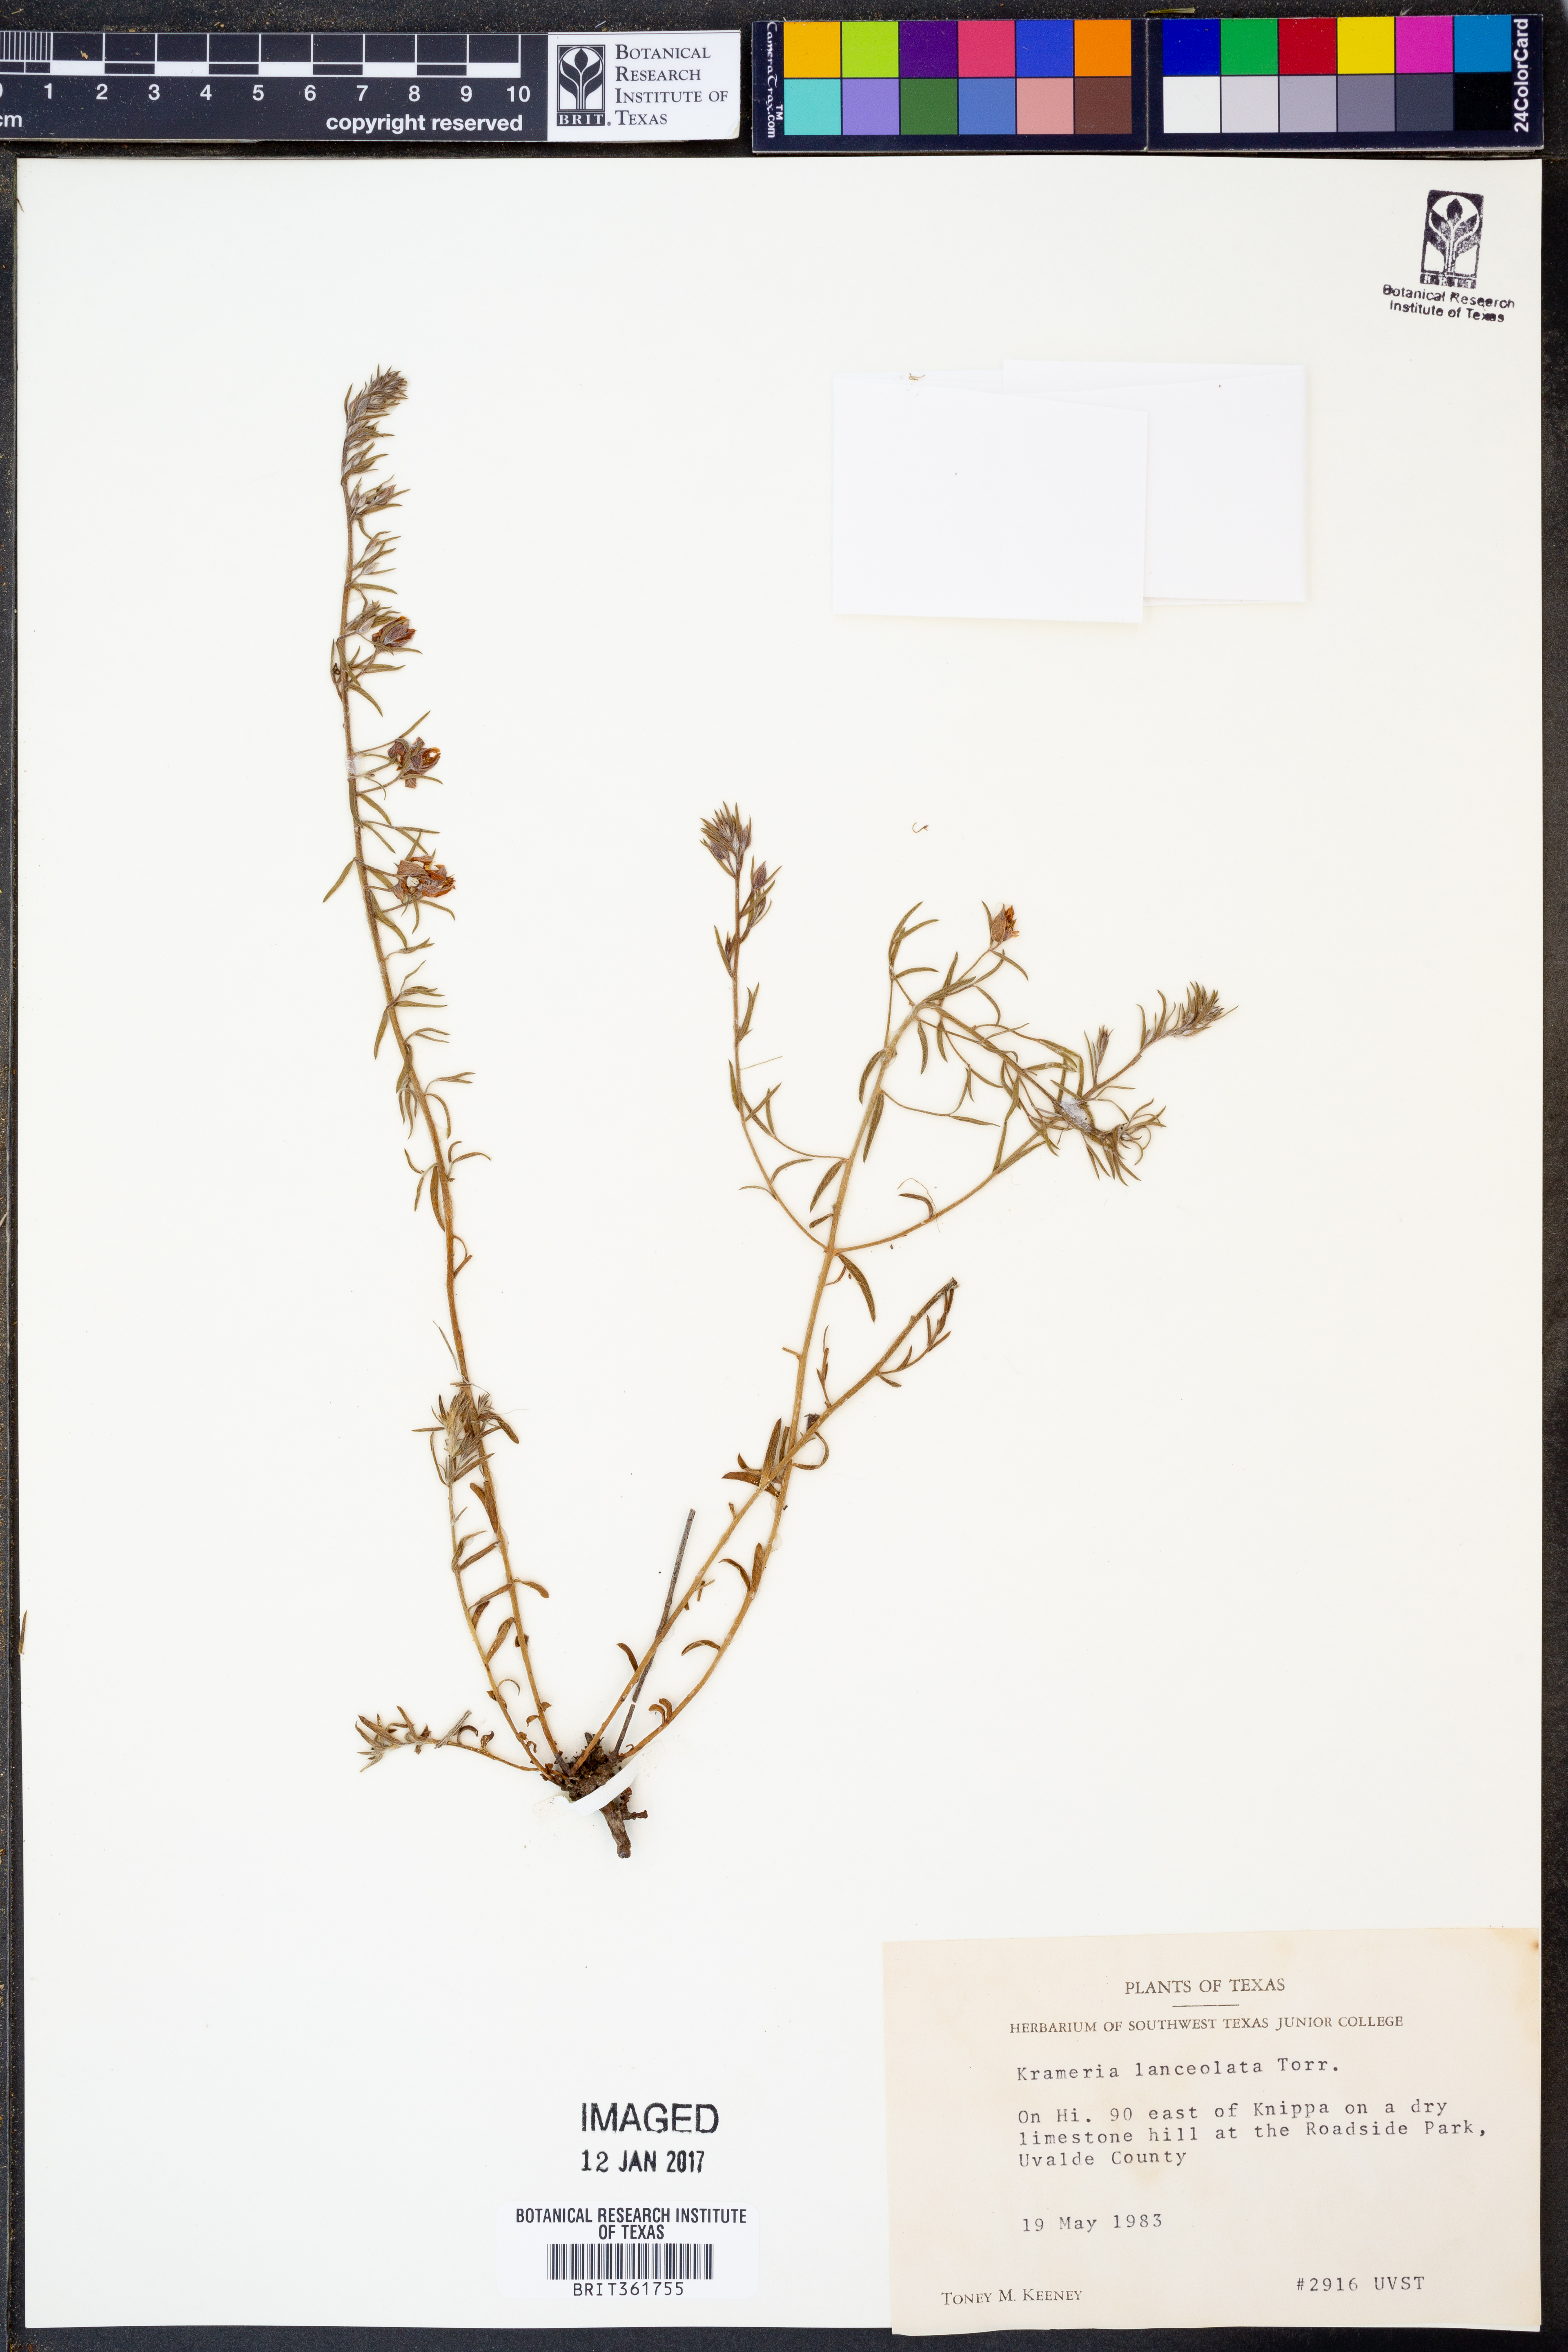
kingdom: Plantae
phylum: Tracheophyta
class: Magnoliopsida
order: Zygophyllales
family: Krameriaceae
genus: Krameria
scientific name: Krameria lanceolata
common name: Ratany
